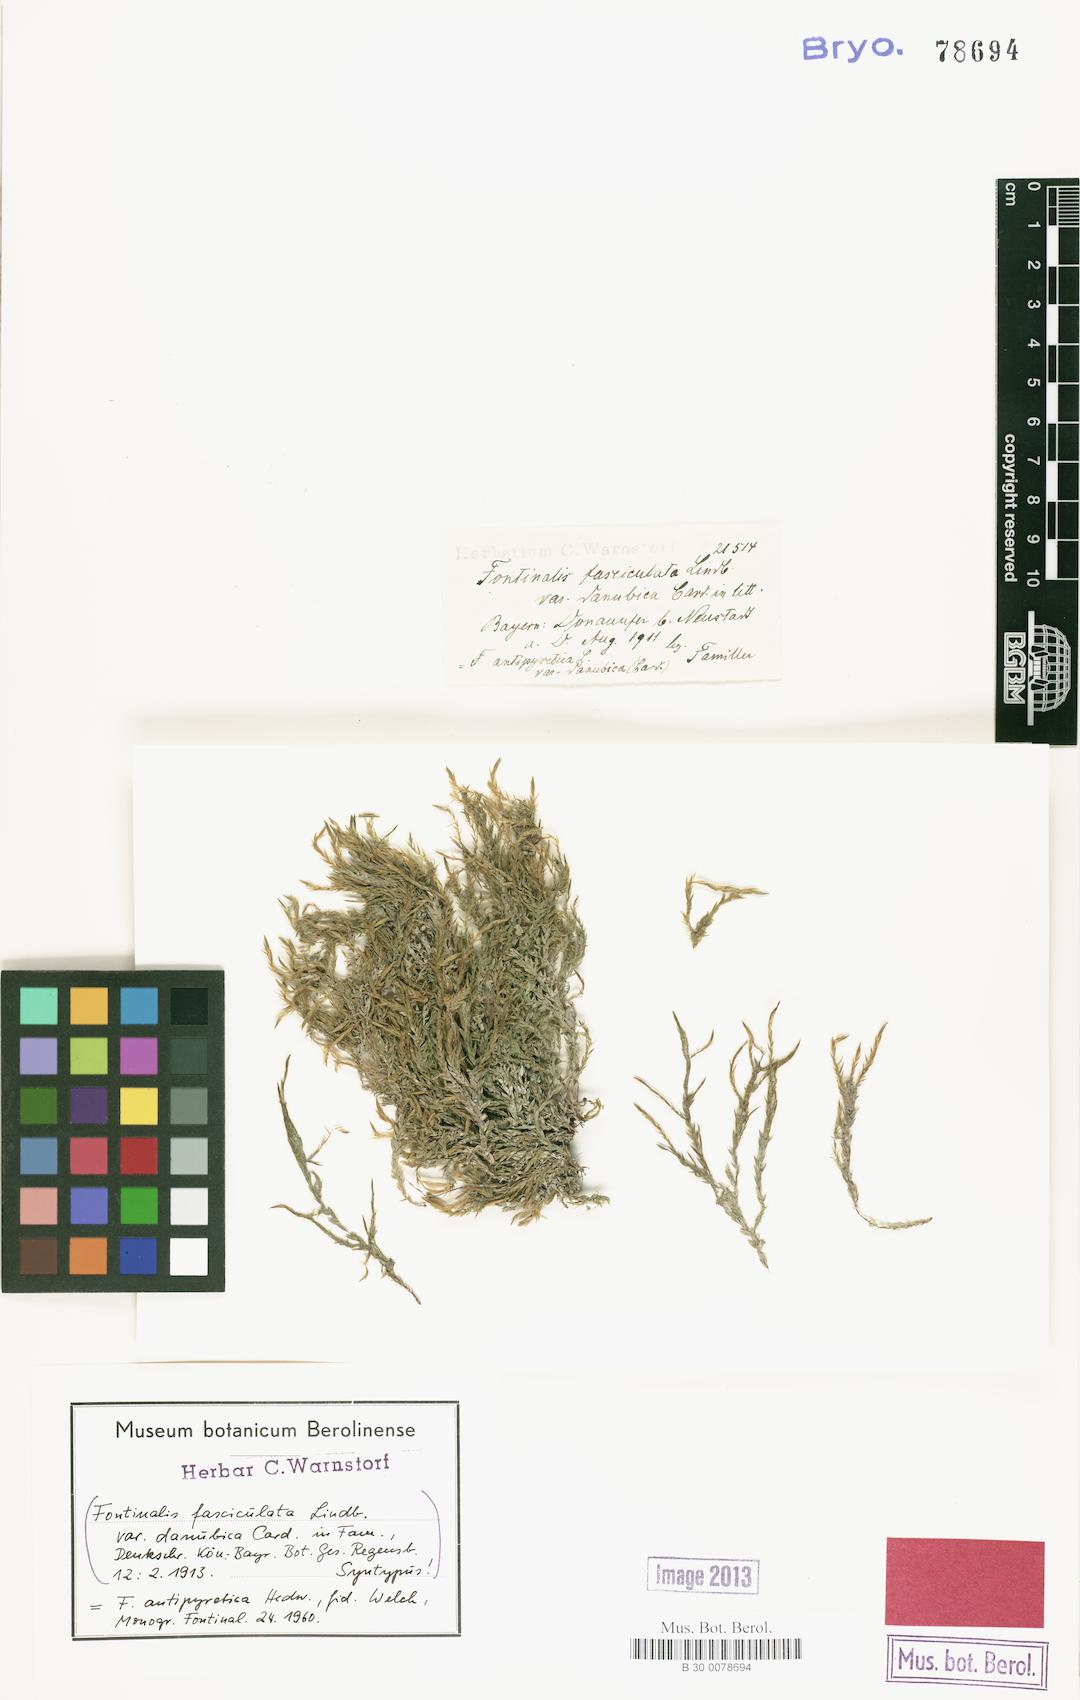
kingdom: Plantae
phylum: Bryophyta
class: Bryopsida
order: Hypnales
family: Fontinalaceae
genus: Fontinalis
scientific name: Fontinalis antipyretica
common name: Greater water-moss
